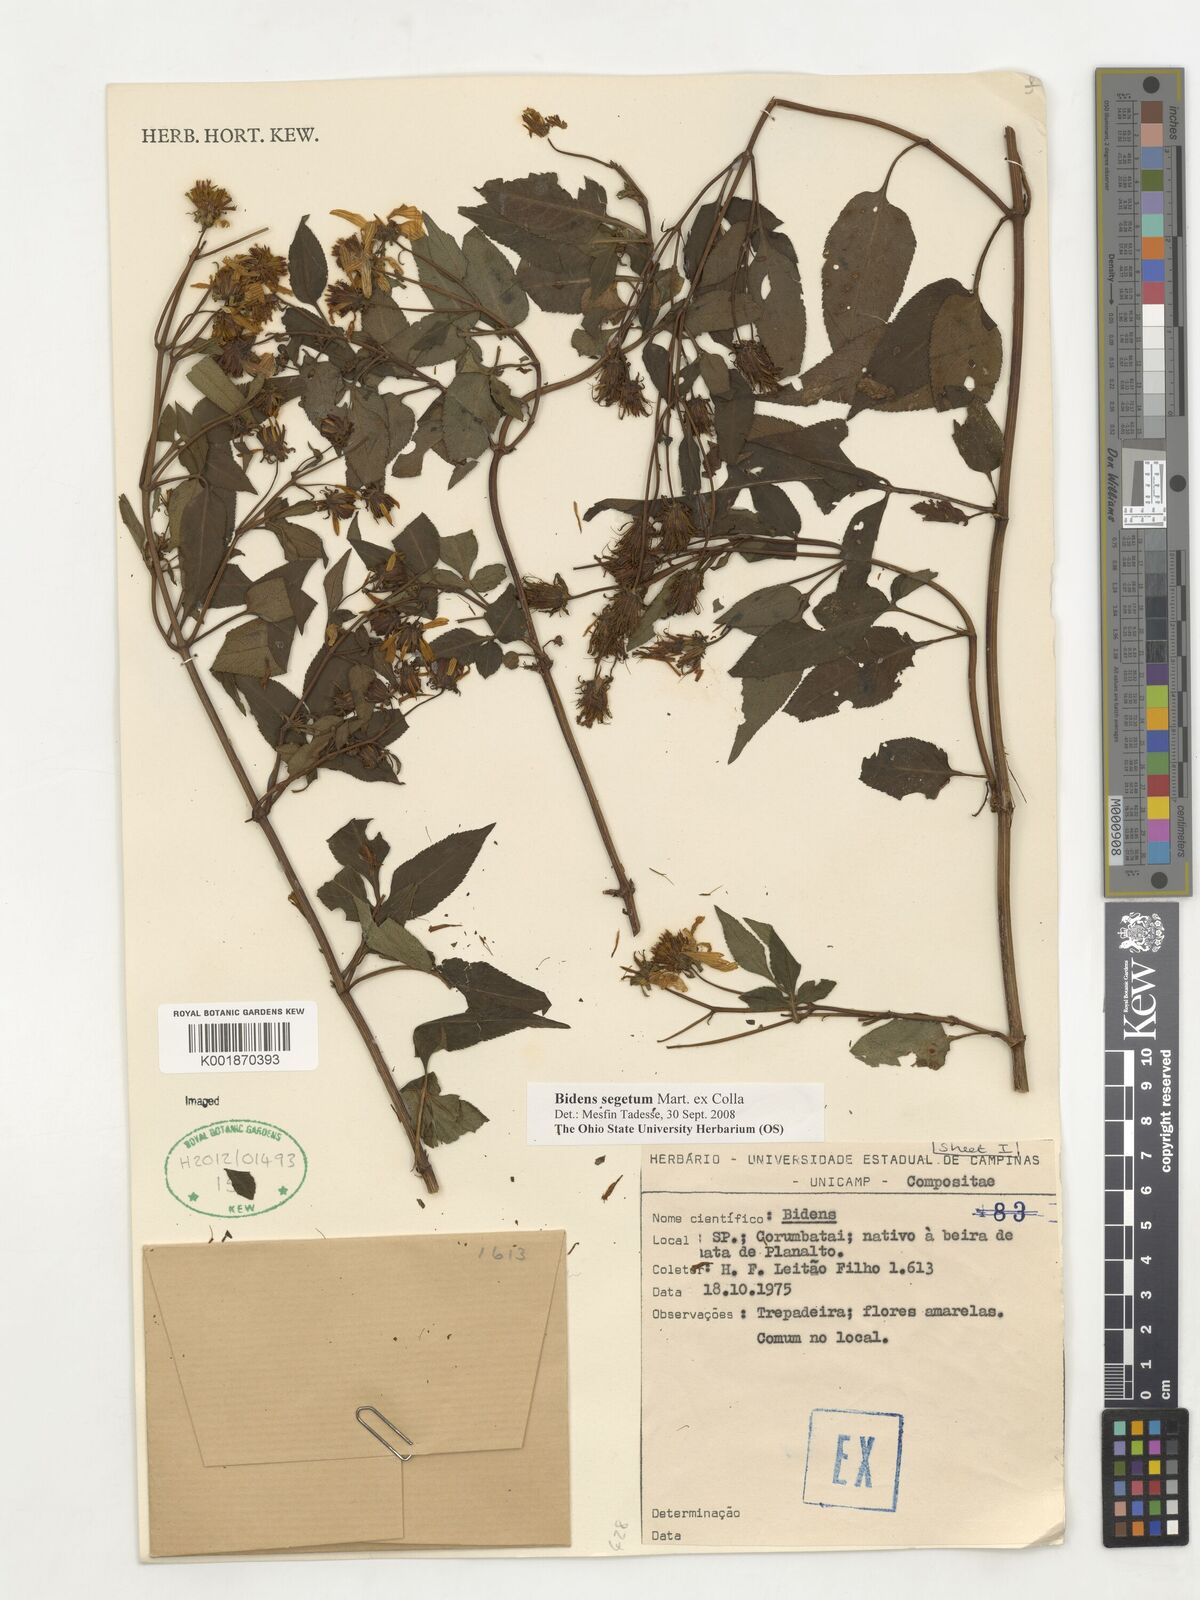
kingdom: Plantae
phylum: Tracheophyta
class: Magnoliopsida
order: Asterales
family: Asteraceae
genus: Bidens
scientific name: Bidens segetum
